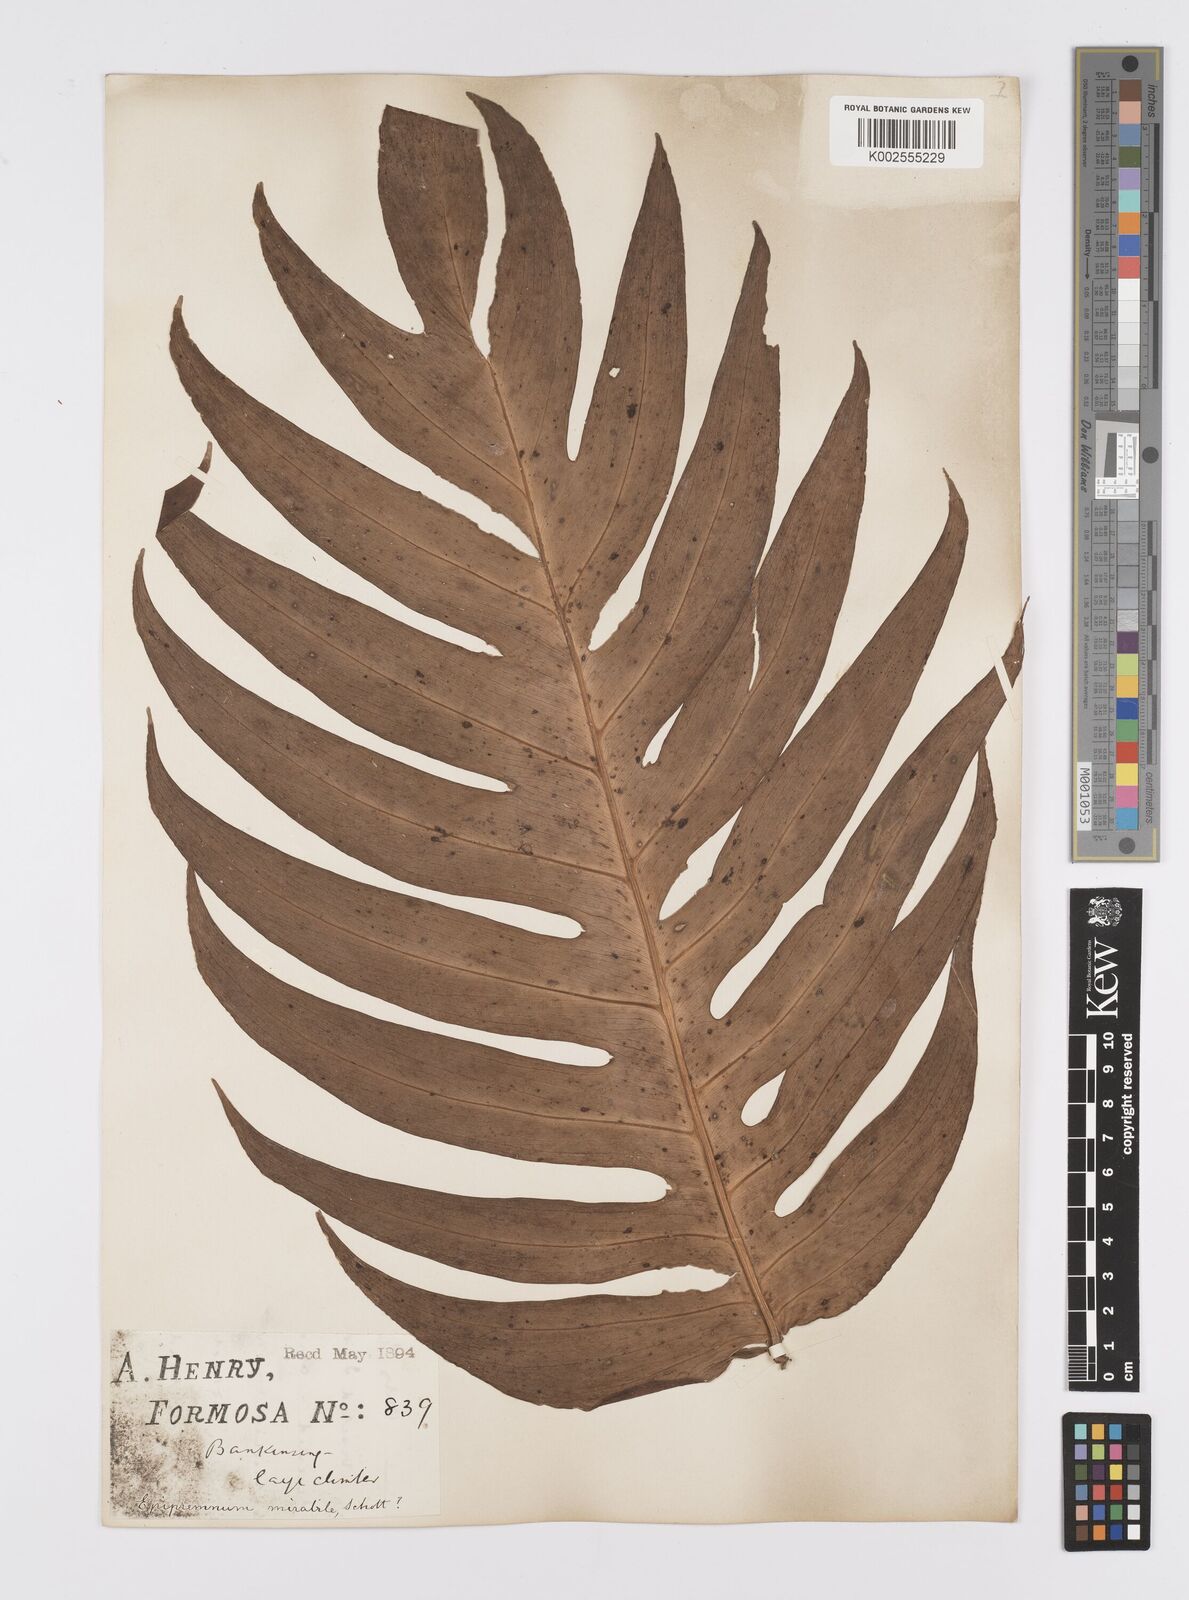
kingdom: Plantae
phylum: Tracheophyta
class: Liliopsida
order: Alismatales
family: Araceae
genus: Epipremnum
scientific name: Epipremnum pinnatum
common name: Centipede tongavine
